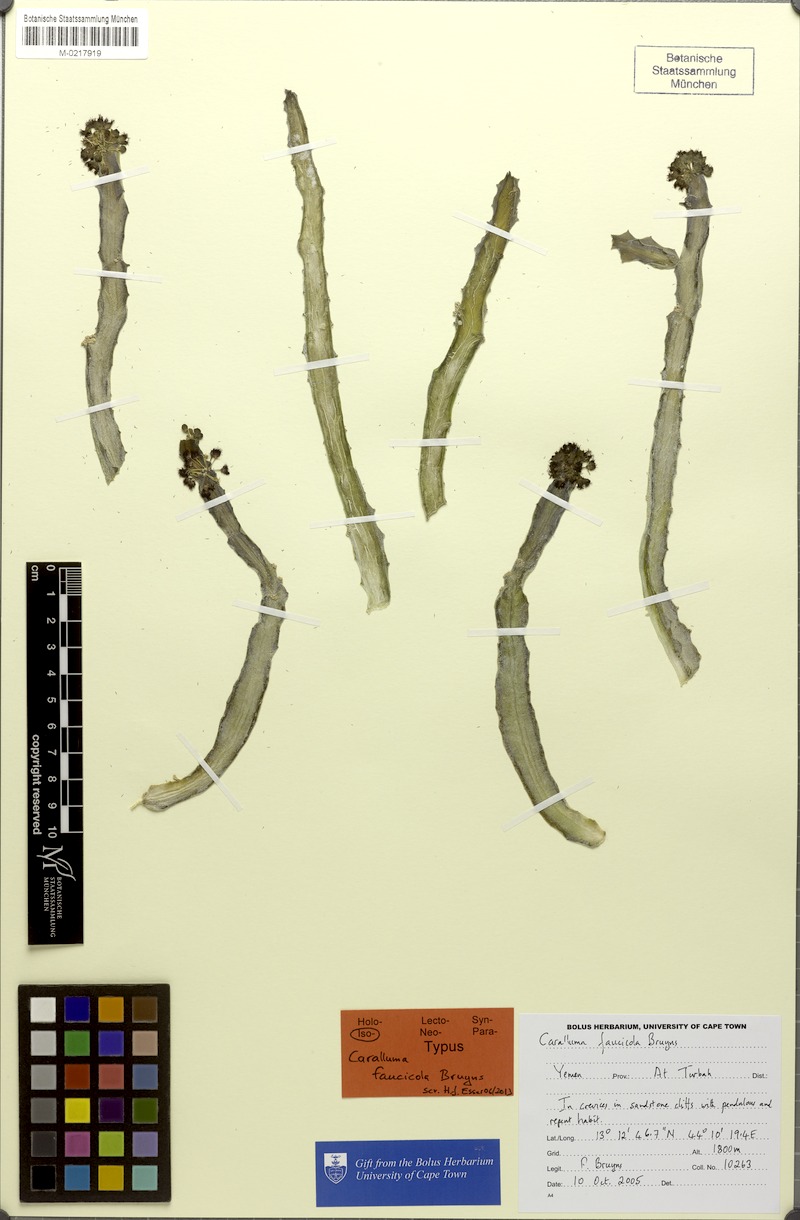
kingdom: Plantae
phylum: Tracheophyta
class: Magnoliopsida
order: Gentianales
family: Apocynaceae
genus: Ceropegia
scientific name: Ceropegia faucicola
